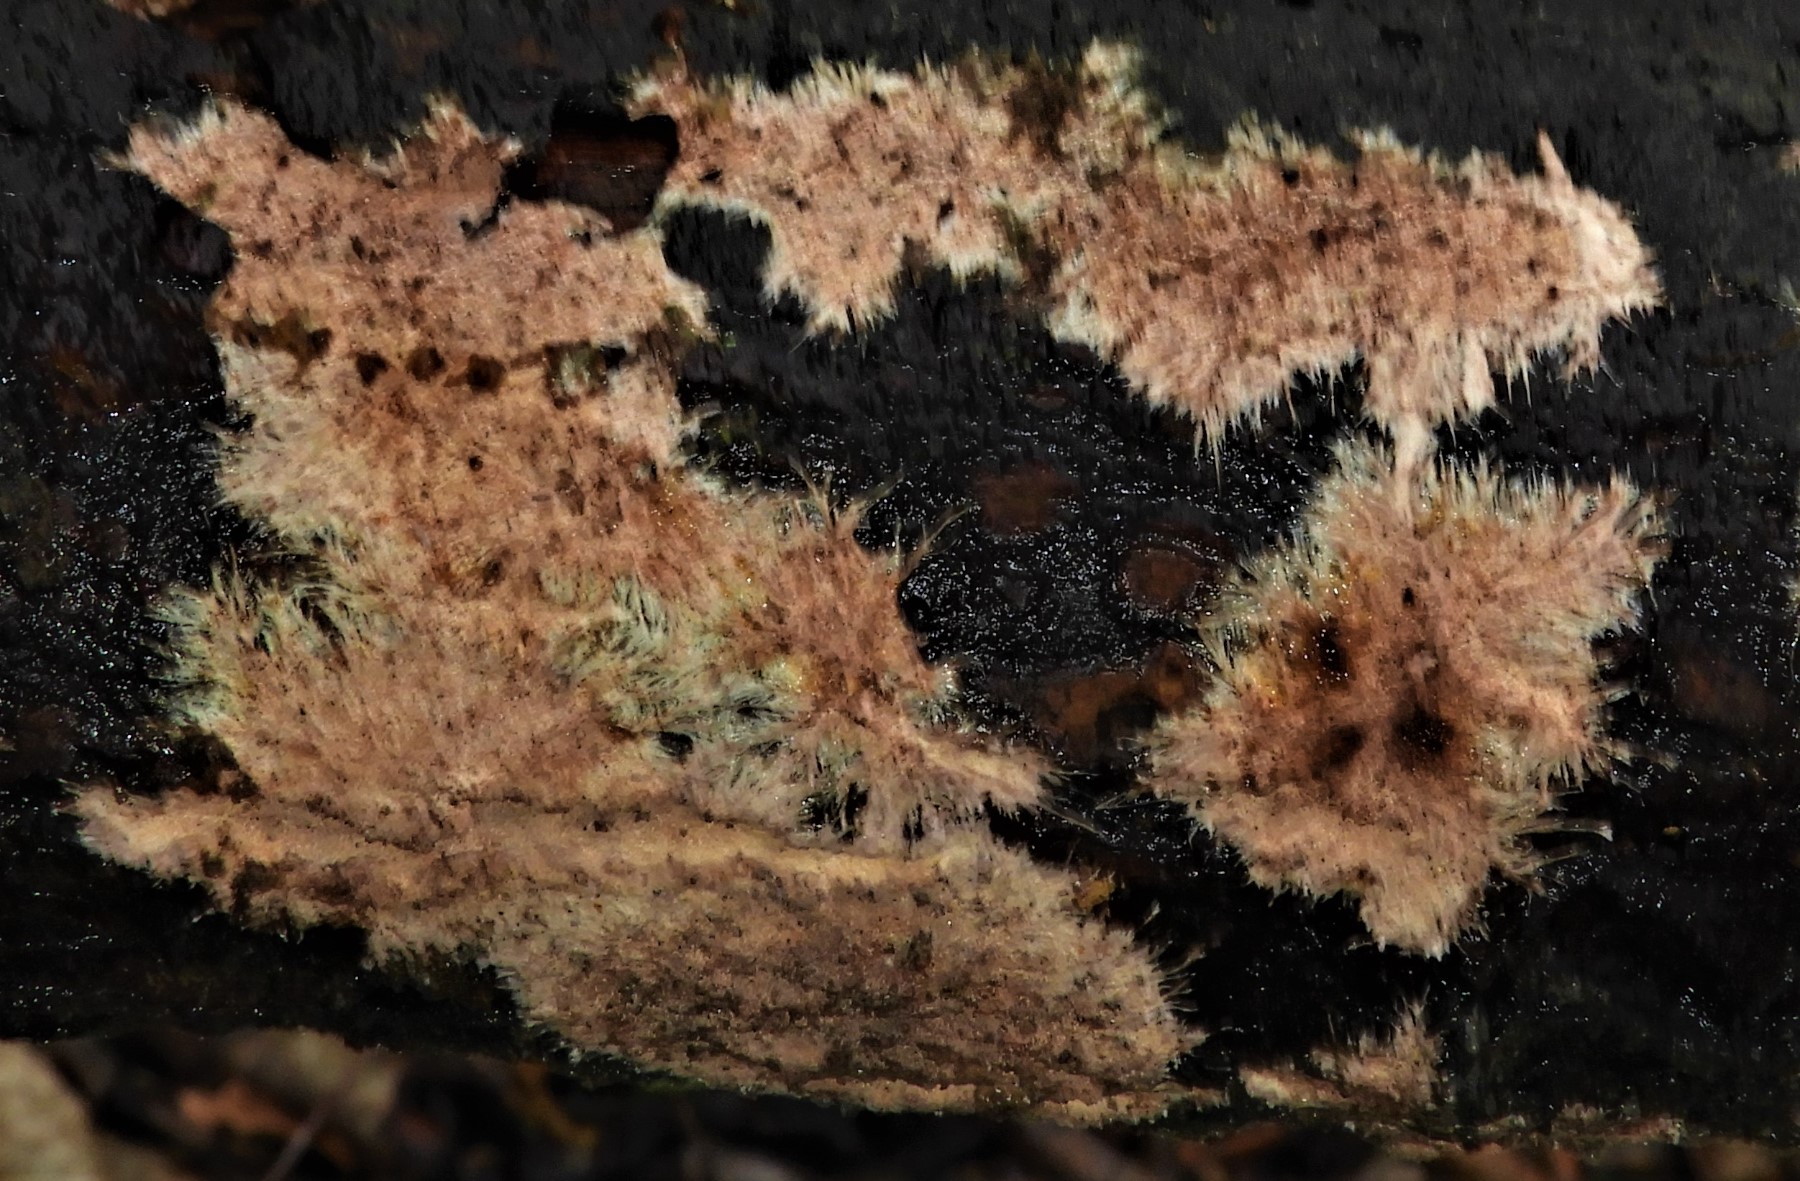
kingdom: Fungi
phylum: Basidiomycota
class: Agaricomycetes
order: Polyporales
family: Steccherinaceae
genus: Steccherinum
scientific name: Steccherinum fimbriatum
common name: trådet skønpig
